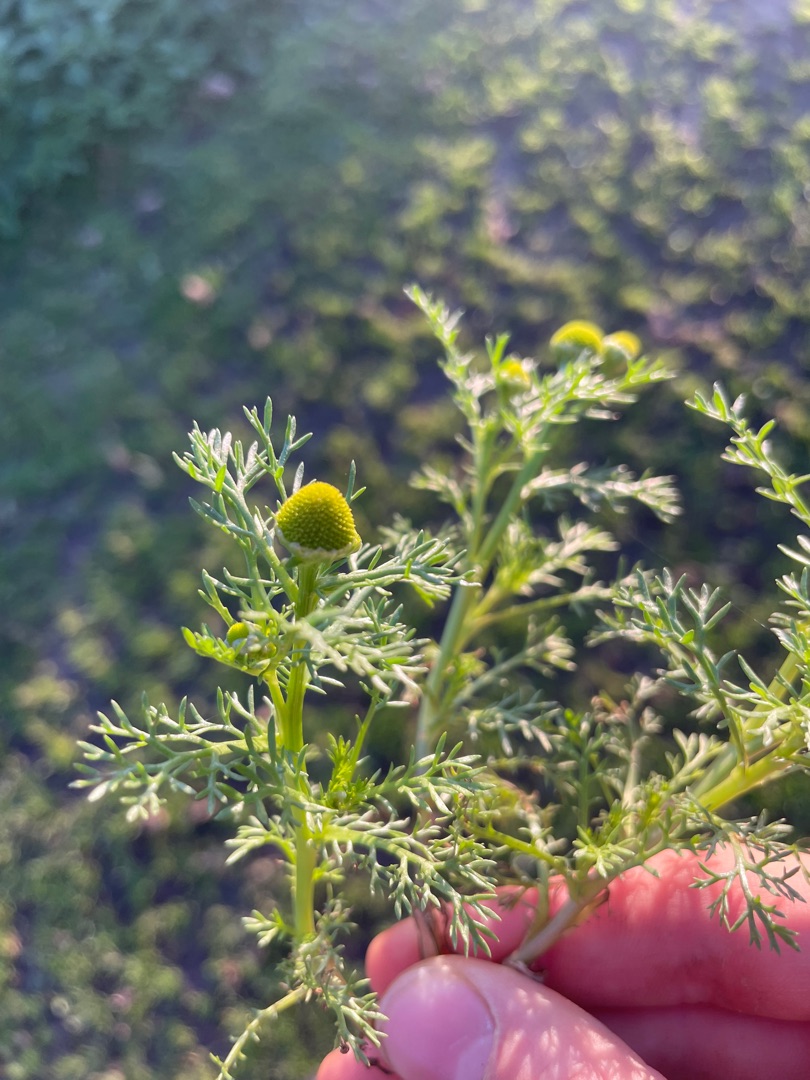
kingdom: Plantae
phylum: Tracheophyta
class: Magnoliopsida
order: Asterales
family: Asteraceae
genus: Matricaria
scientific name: Matricaria discoidea
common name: Skive-kamille
